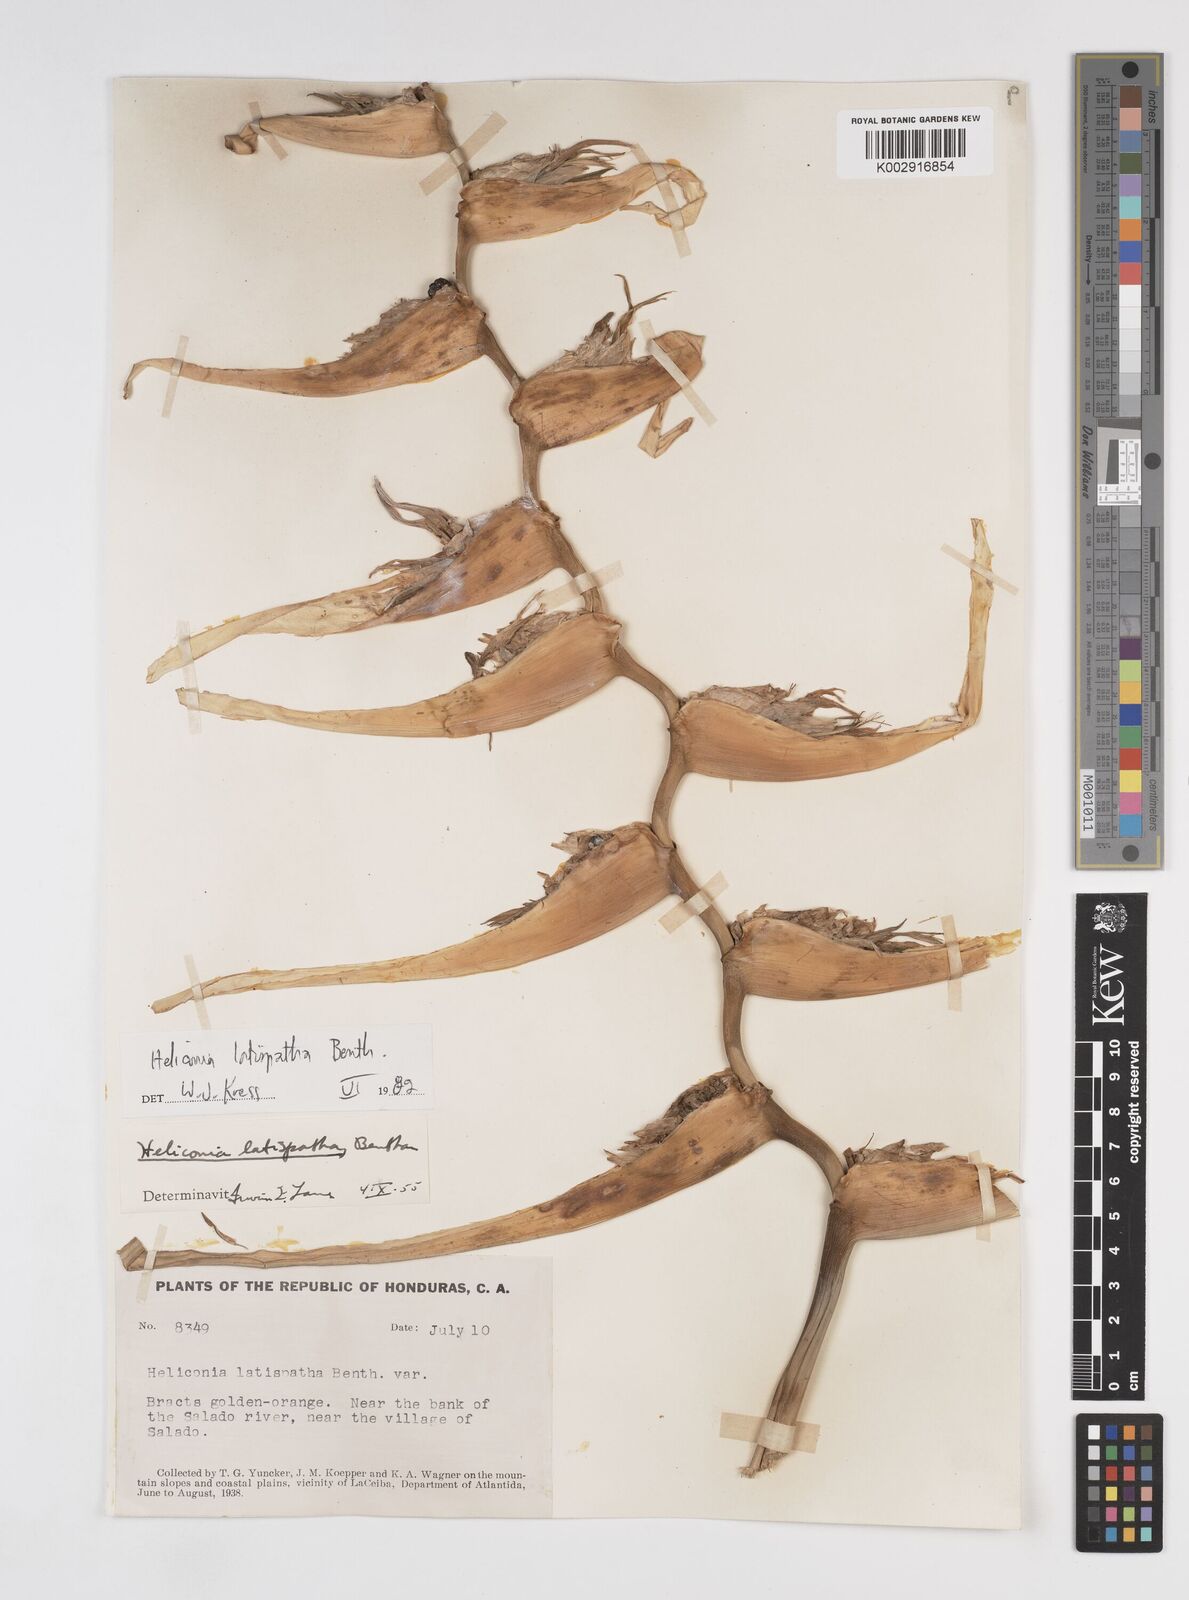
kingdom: Plantae
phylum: Tracheophyta
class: Liliopsida
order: Zingiberales
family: Heliconiaceae
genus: Heliconia
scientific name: Heliconia latispatha
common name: Expanded lobsterclaw
